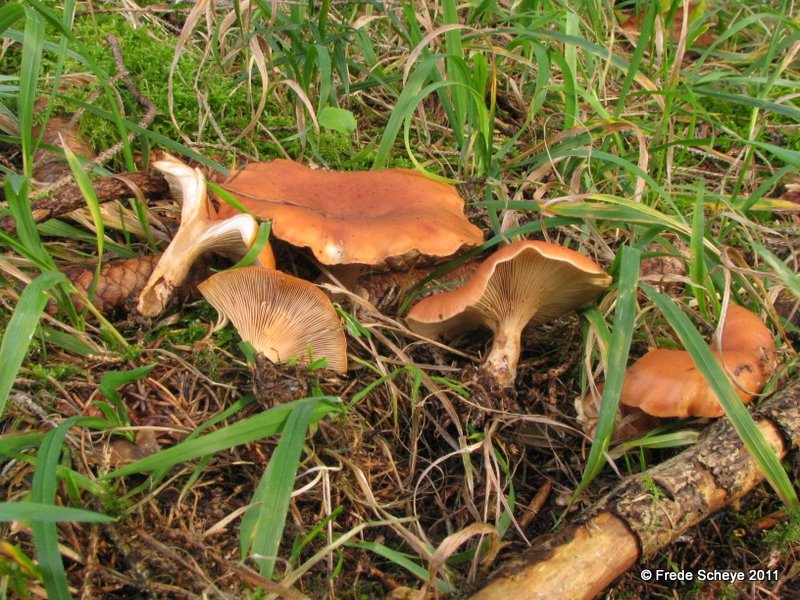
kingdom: Fungi
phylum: Basidiomycota
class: Agaricomycetes
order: Agaricales
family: Tricholomataceae
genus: Paralepista
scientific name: Paralepista flaccida
